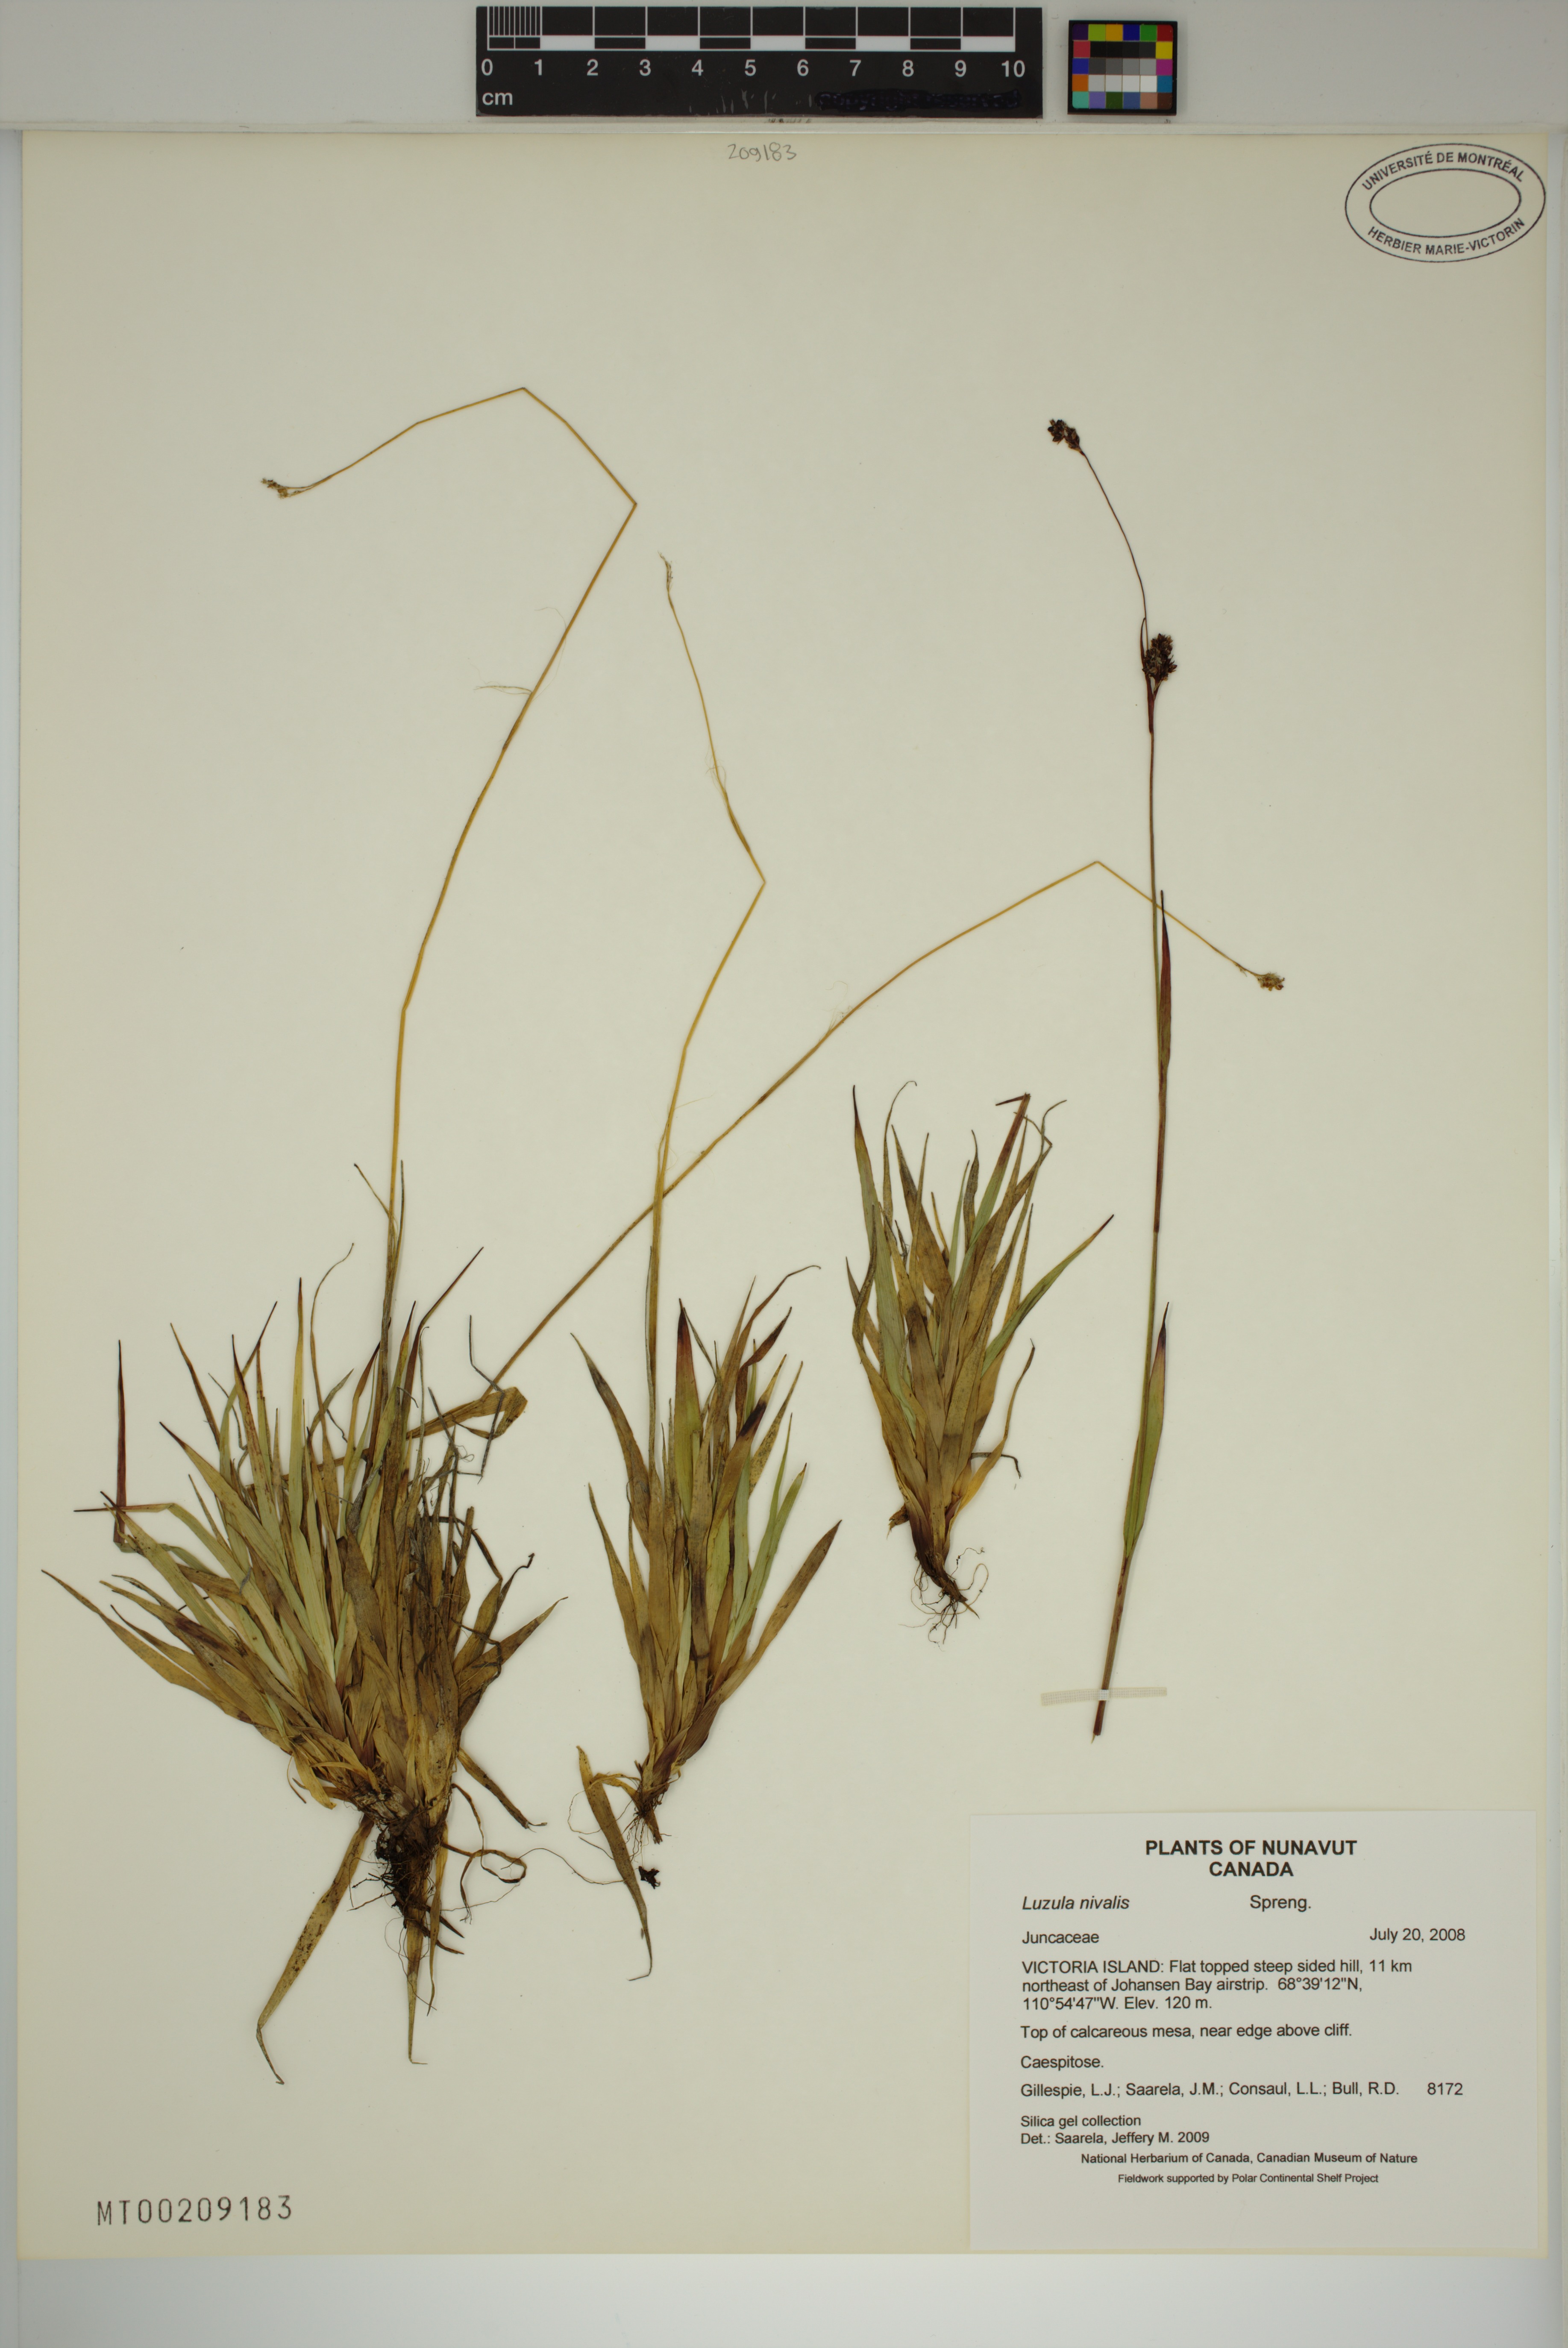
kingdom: Plantae
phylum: Tracheophyta
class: Liliopsida
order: Poales
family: Juncaceae
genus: Luzula
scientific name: Luzula nivalis
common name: Arctic woodrush
